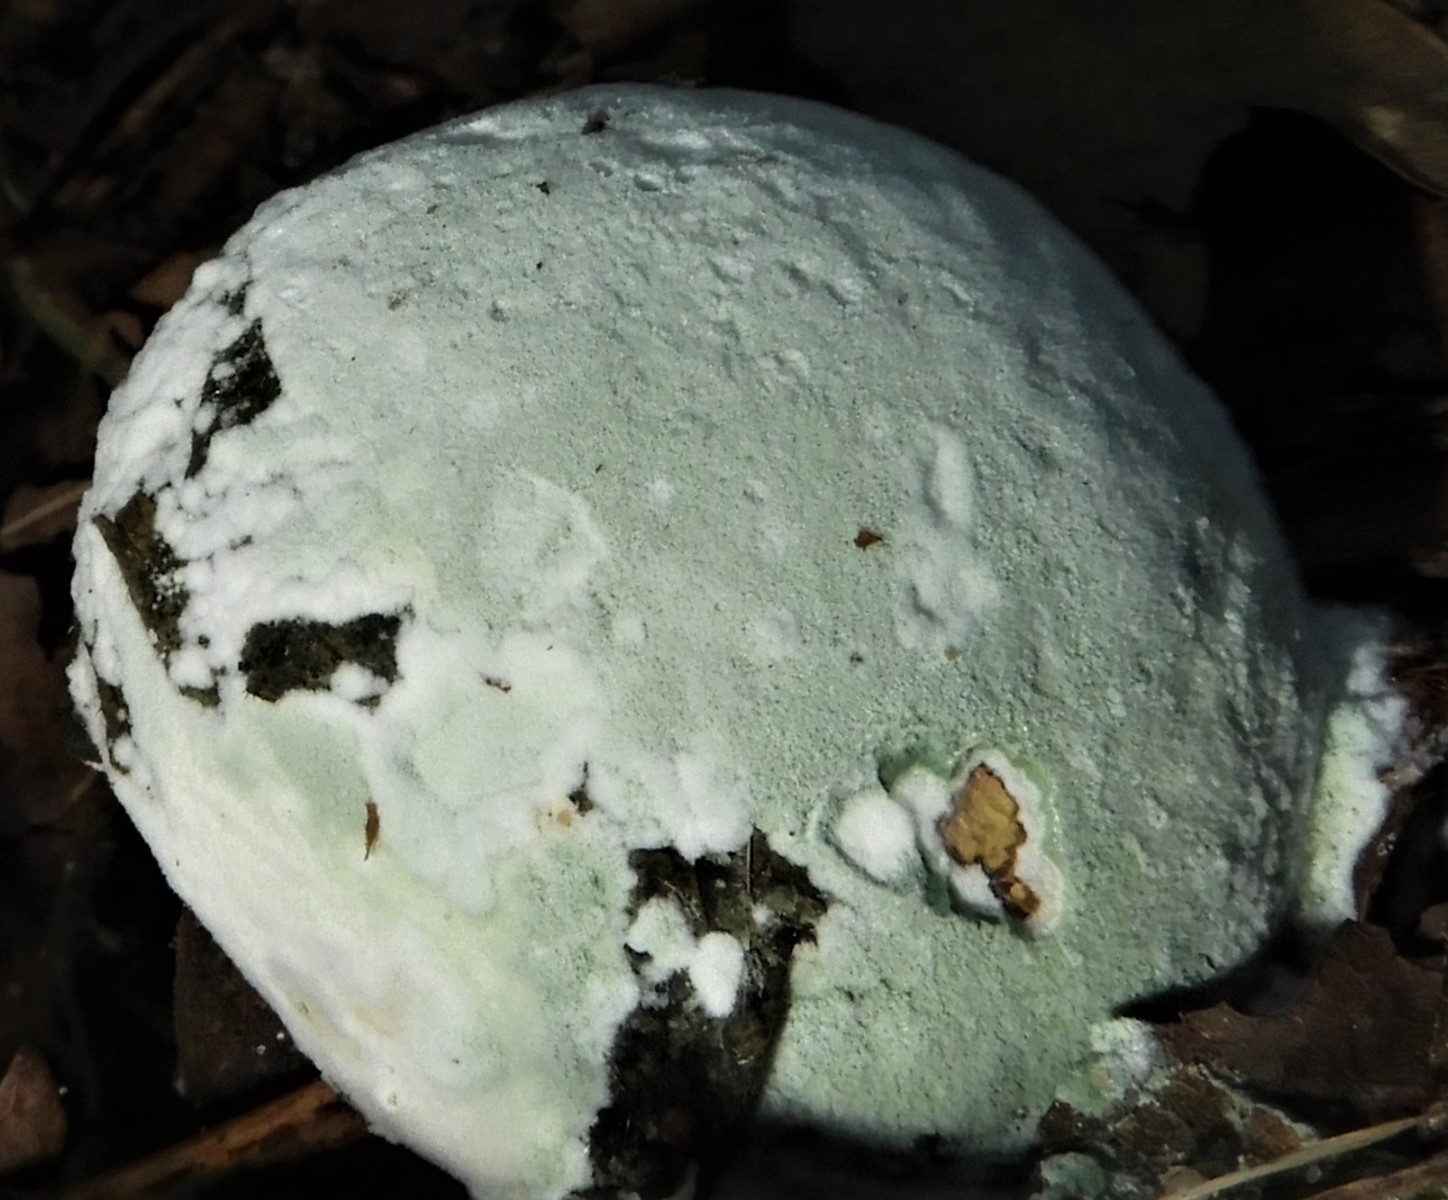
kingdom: Fungi
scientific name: Fungi
